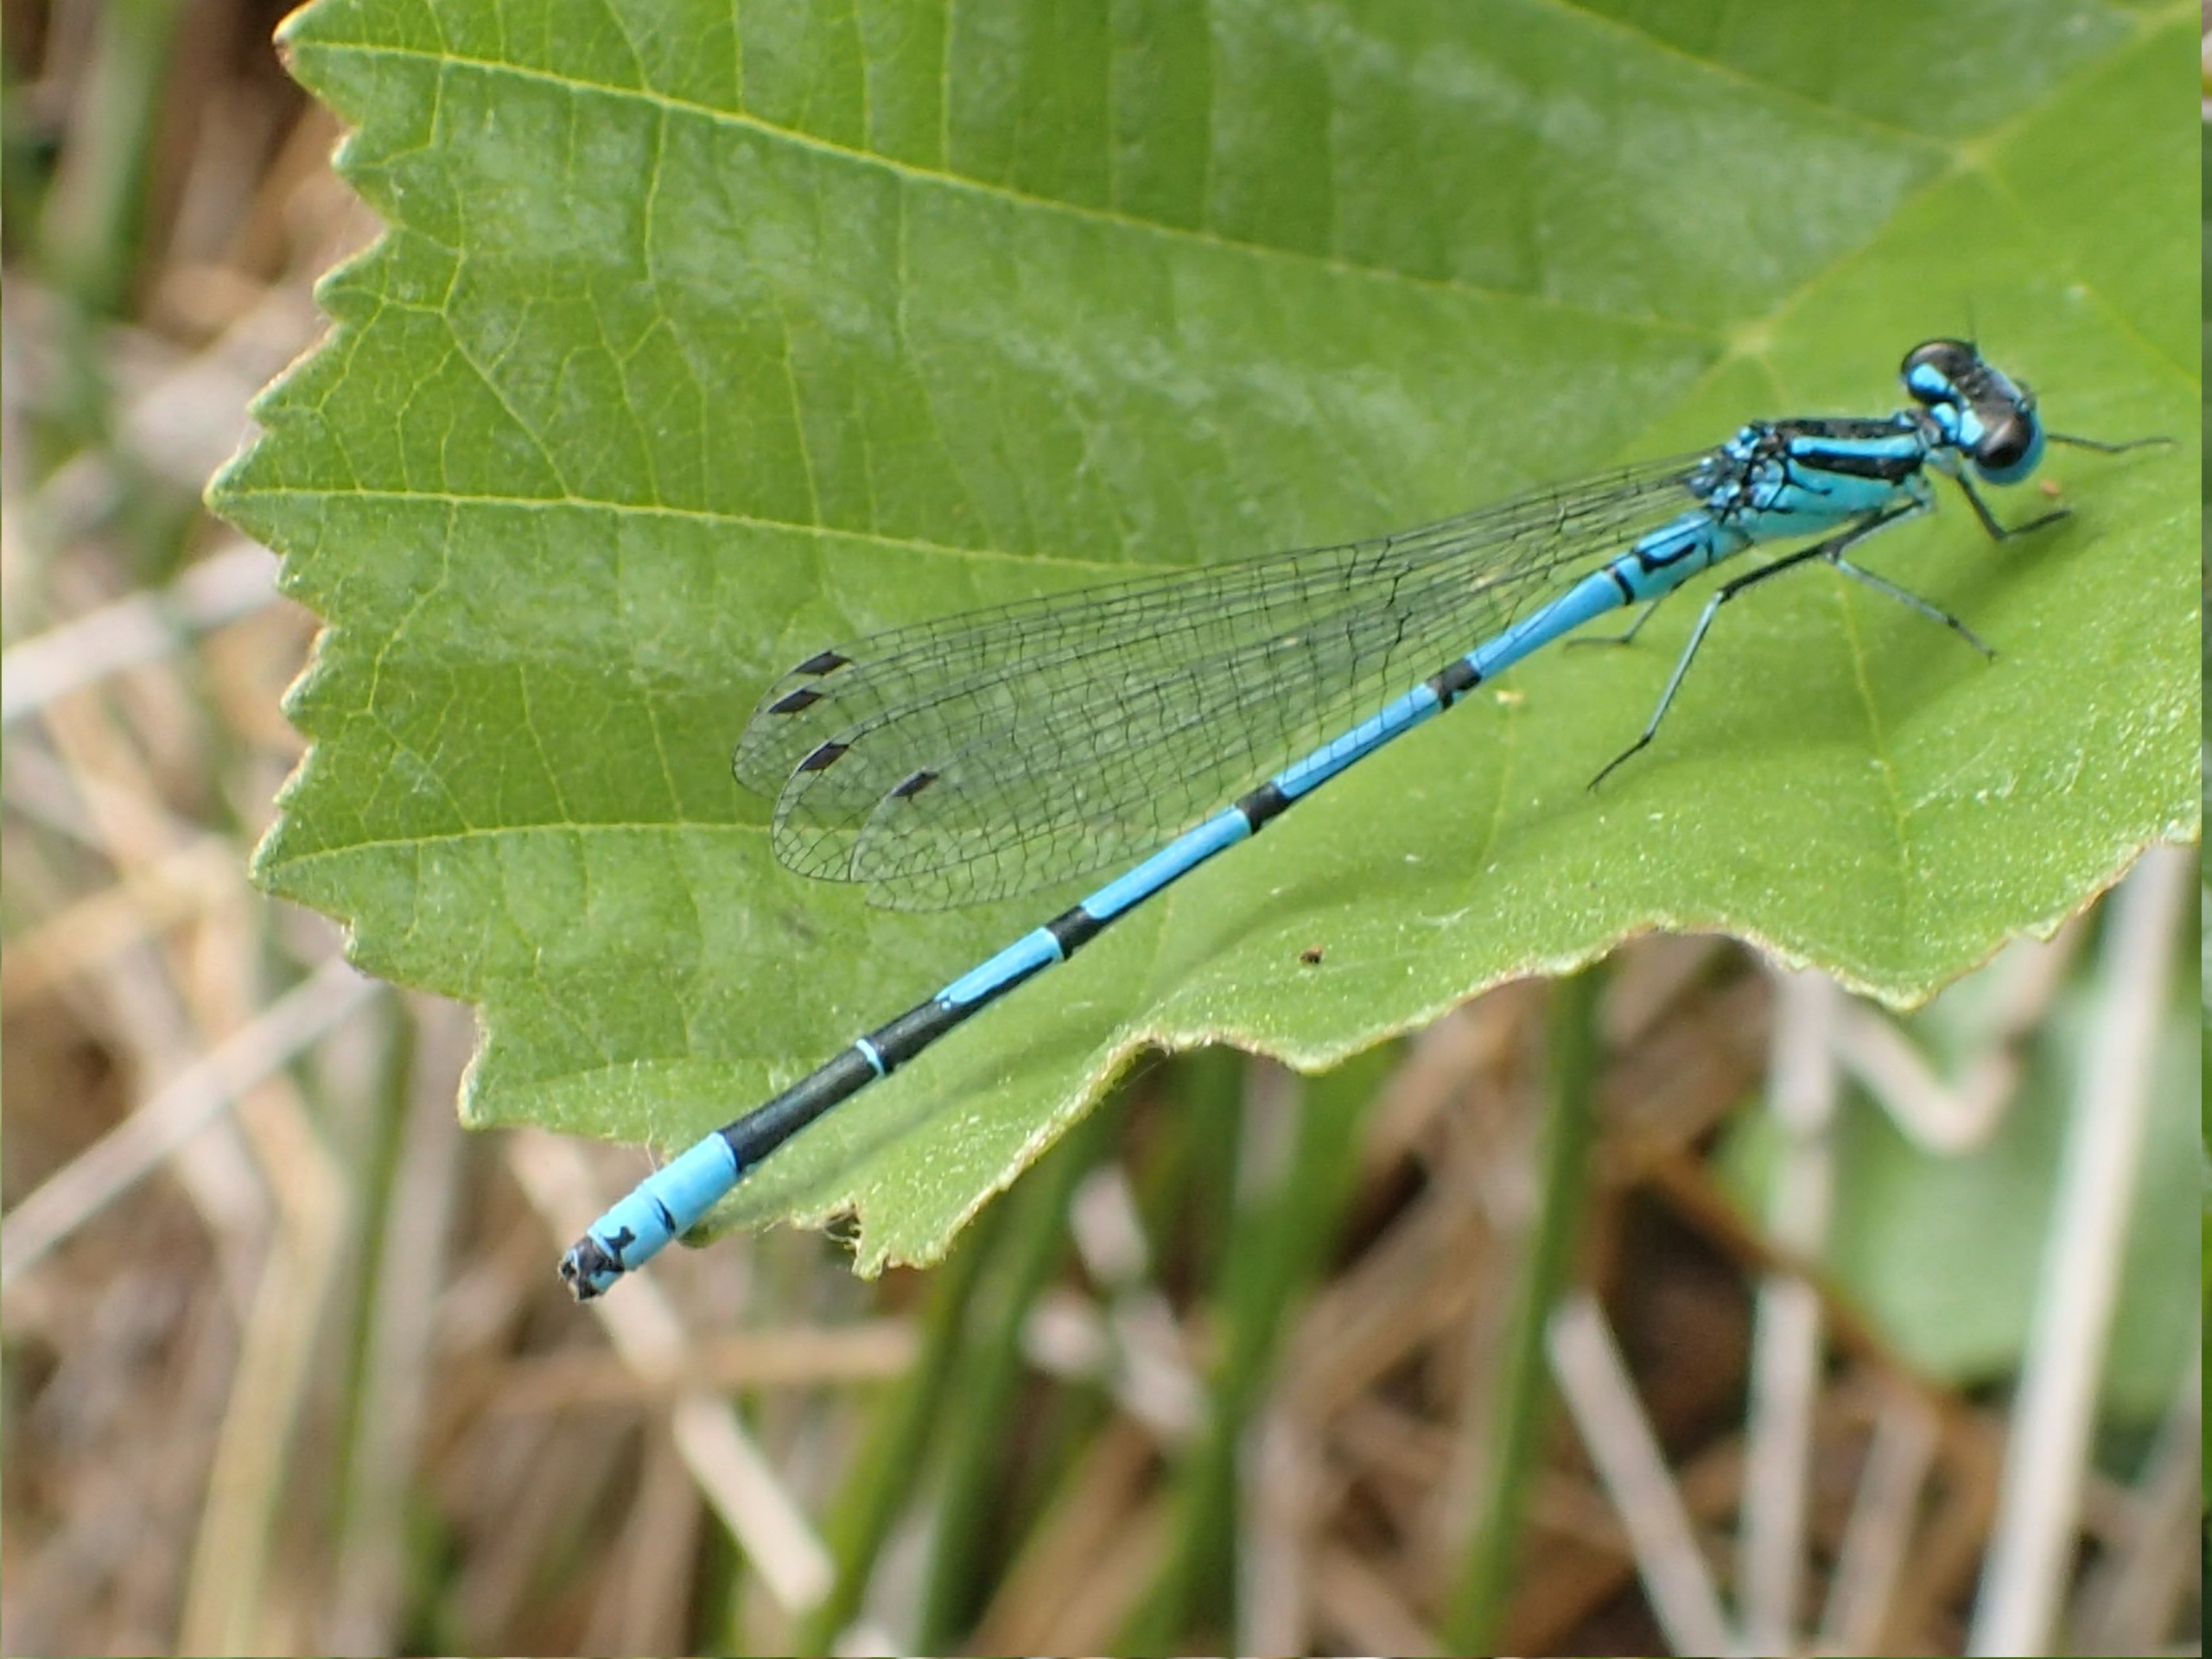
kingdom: Animalia
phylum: Arthropoda
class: Insecta
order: Odonata
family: Coenagrionidae
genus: Coenagrion
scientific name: Coenagrion puella
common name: Hestesko-vandnymfe
